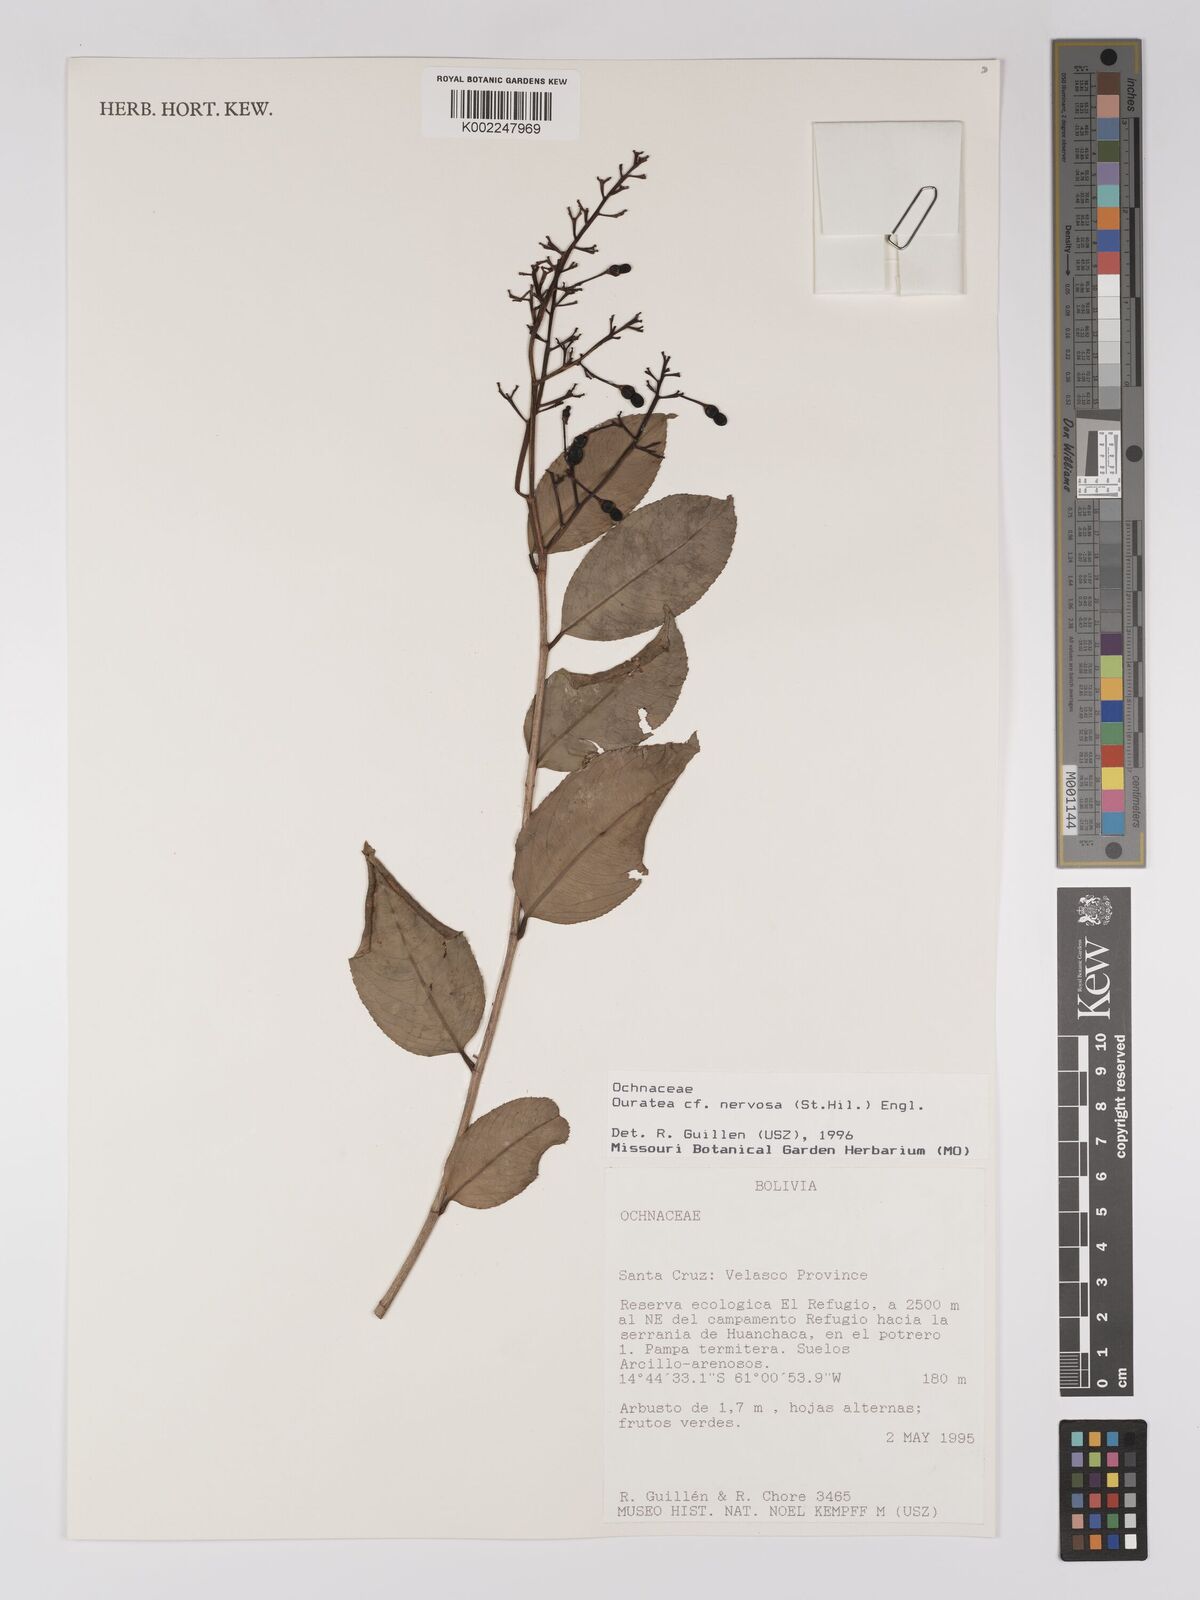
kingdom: Plantae
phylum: Tracheophyta
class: Magnoliopsida
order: Malpighiales
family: Ochnaceae
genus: Ouratea
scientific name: Ouratea nervosa
